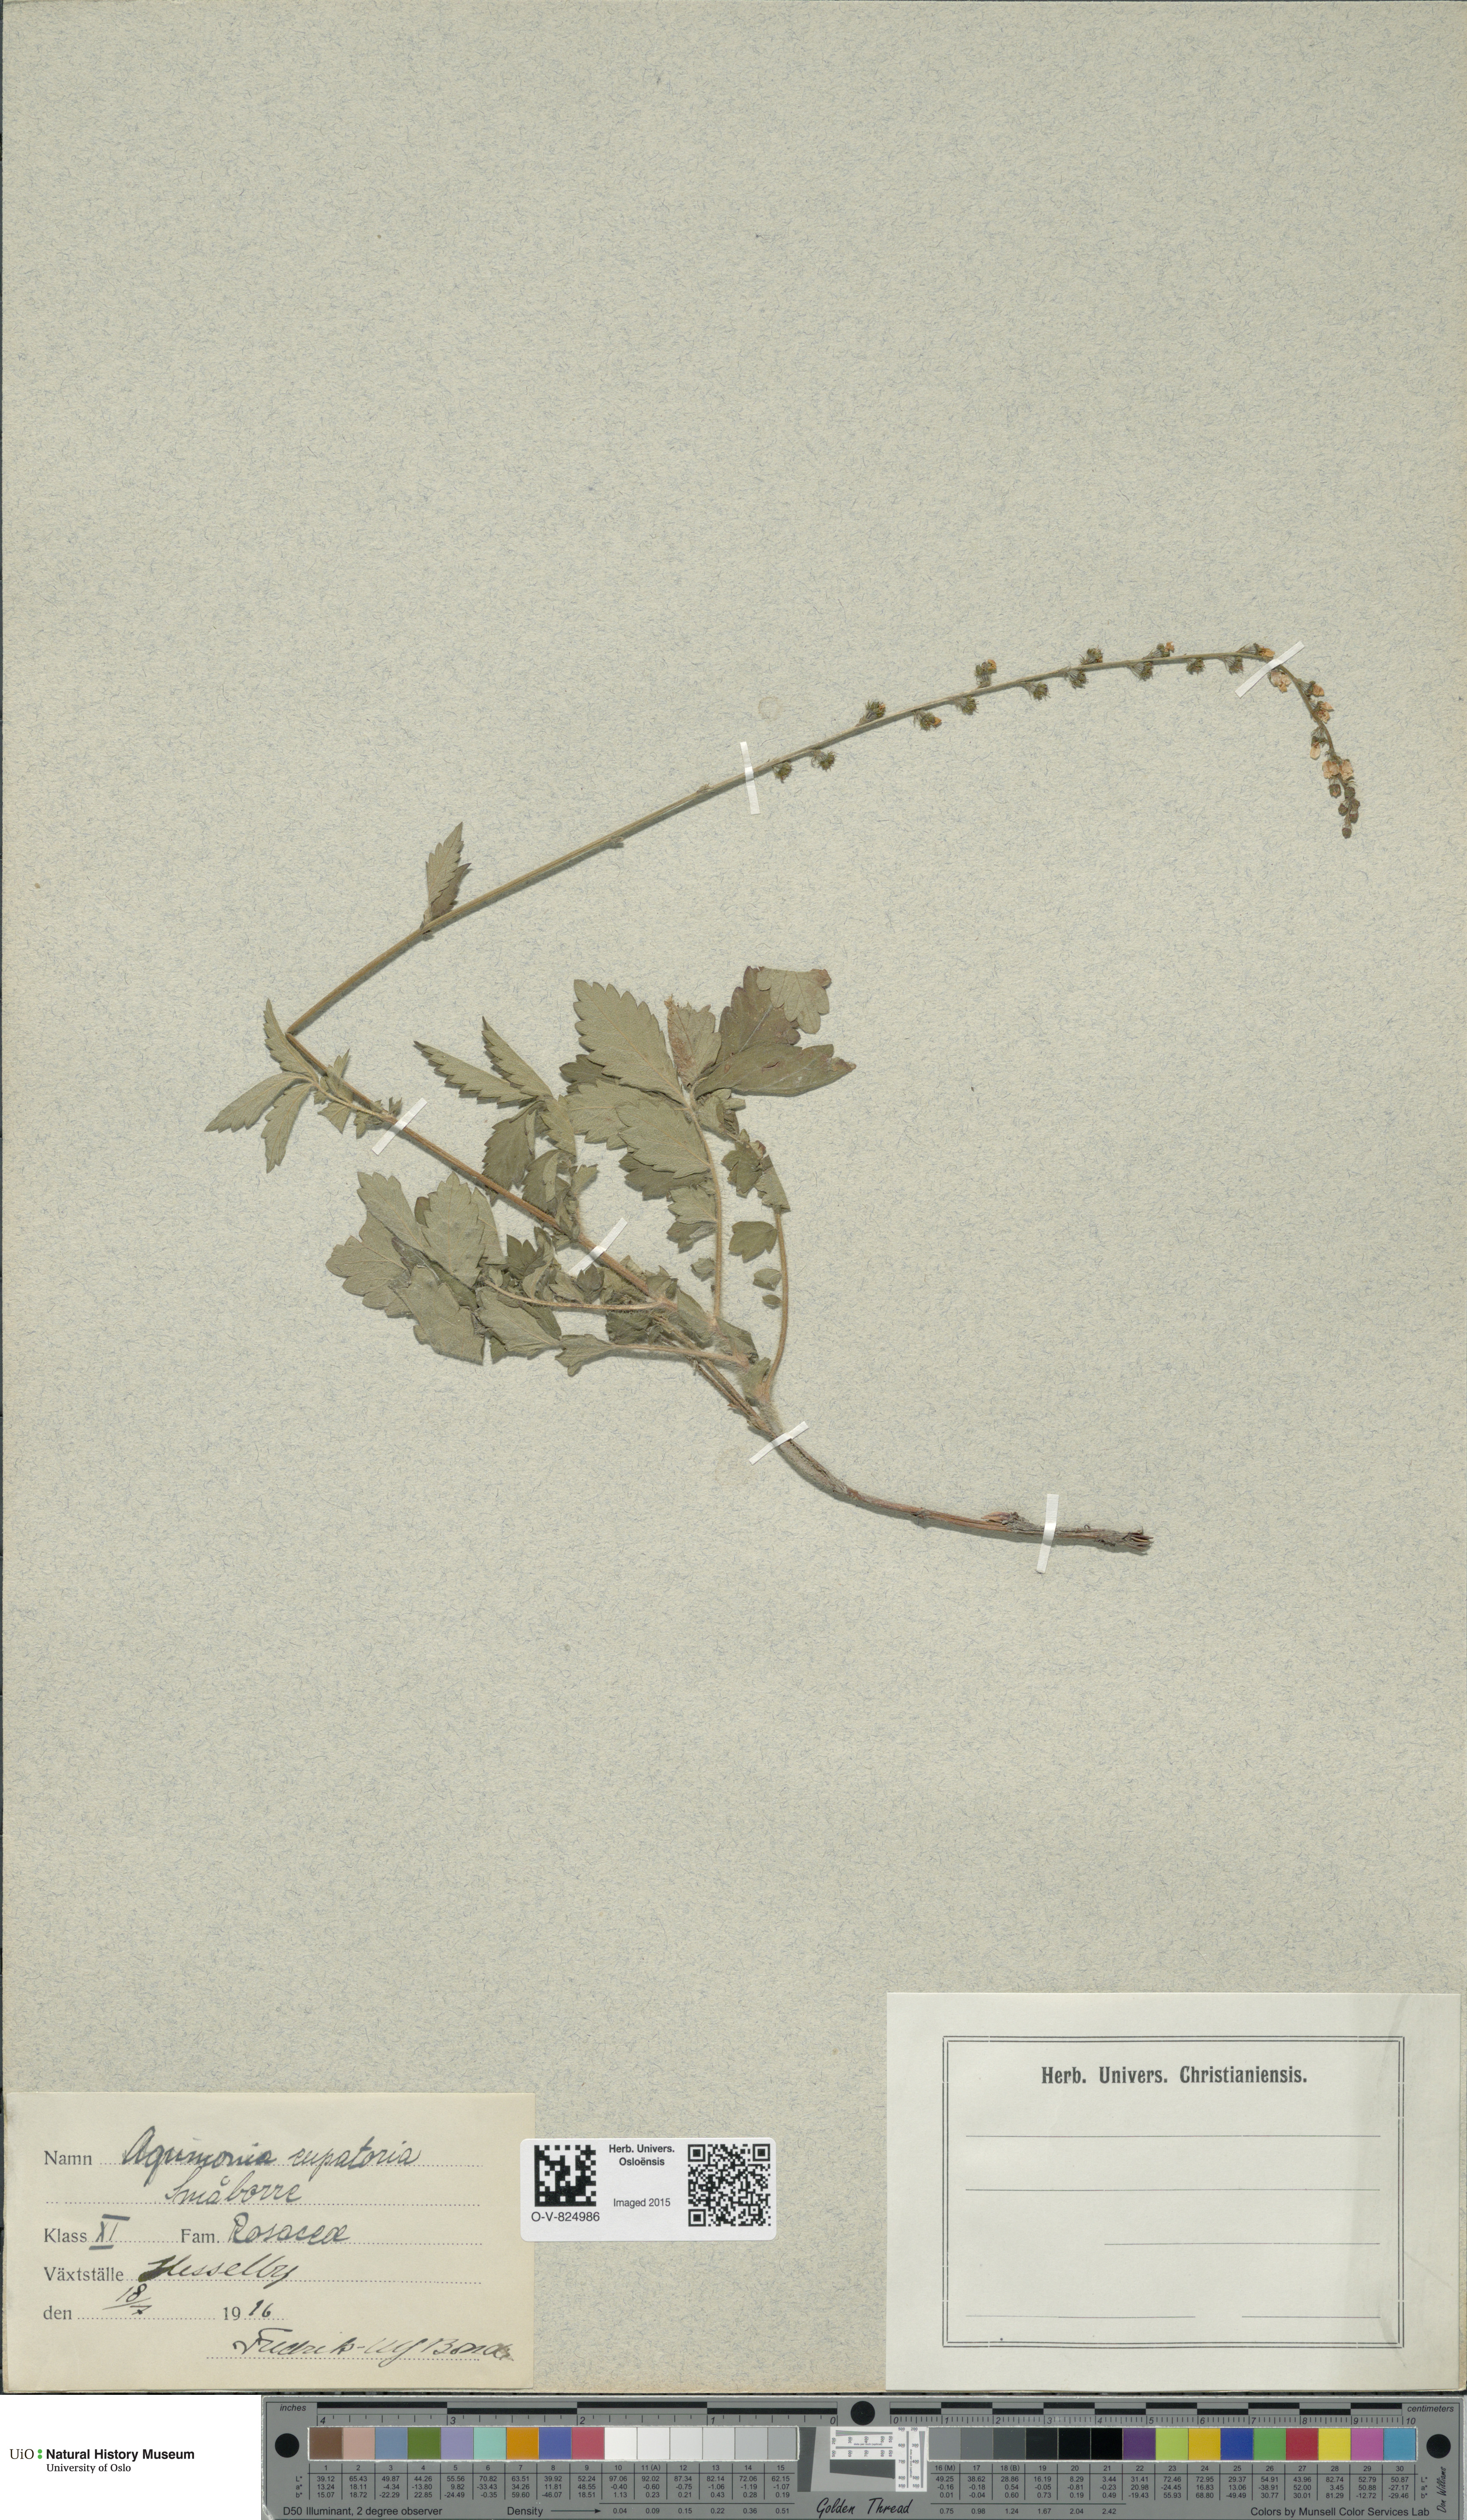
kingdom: Plantae
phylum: Tracheophyta
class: Magnoliopsida
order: Rosales
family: Rosaceae
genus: Agrimonia
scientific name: Agrimonia eupatoria
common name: Agrimony
